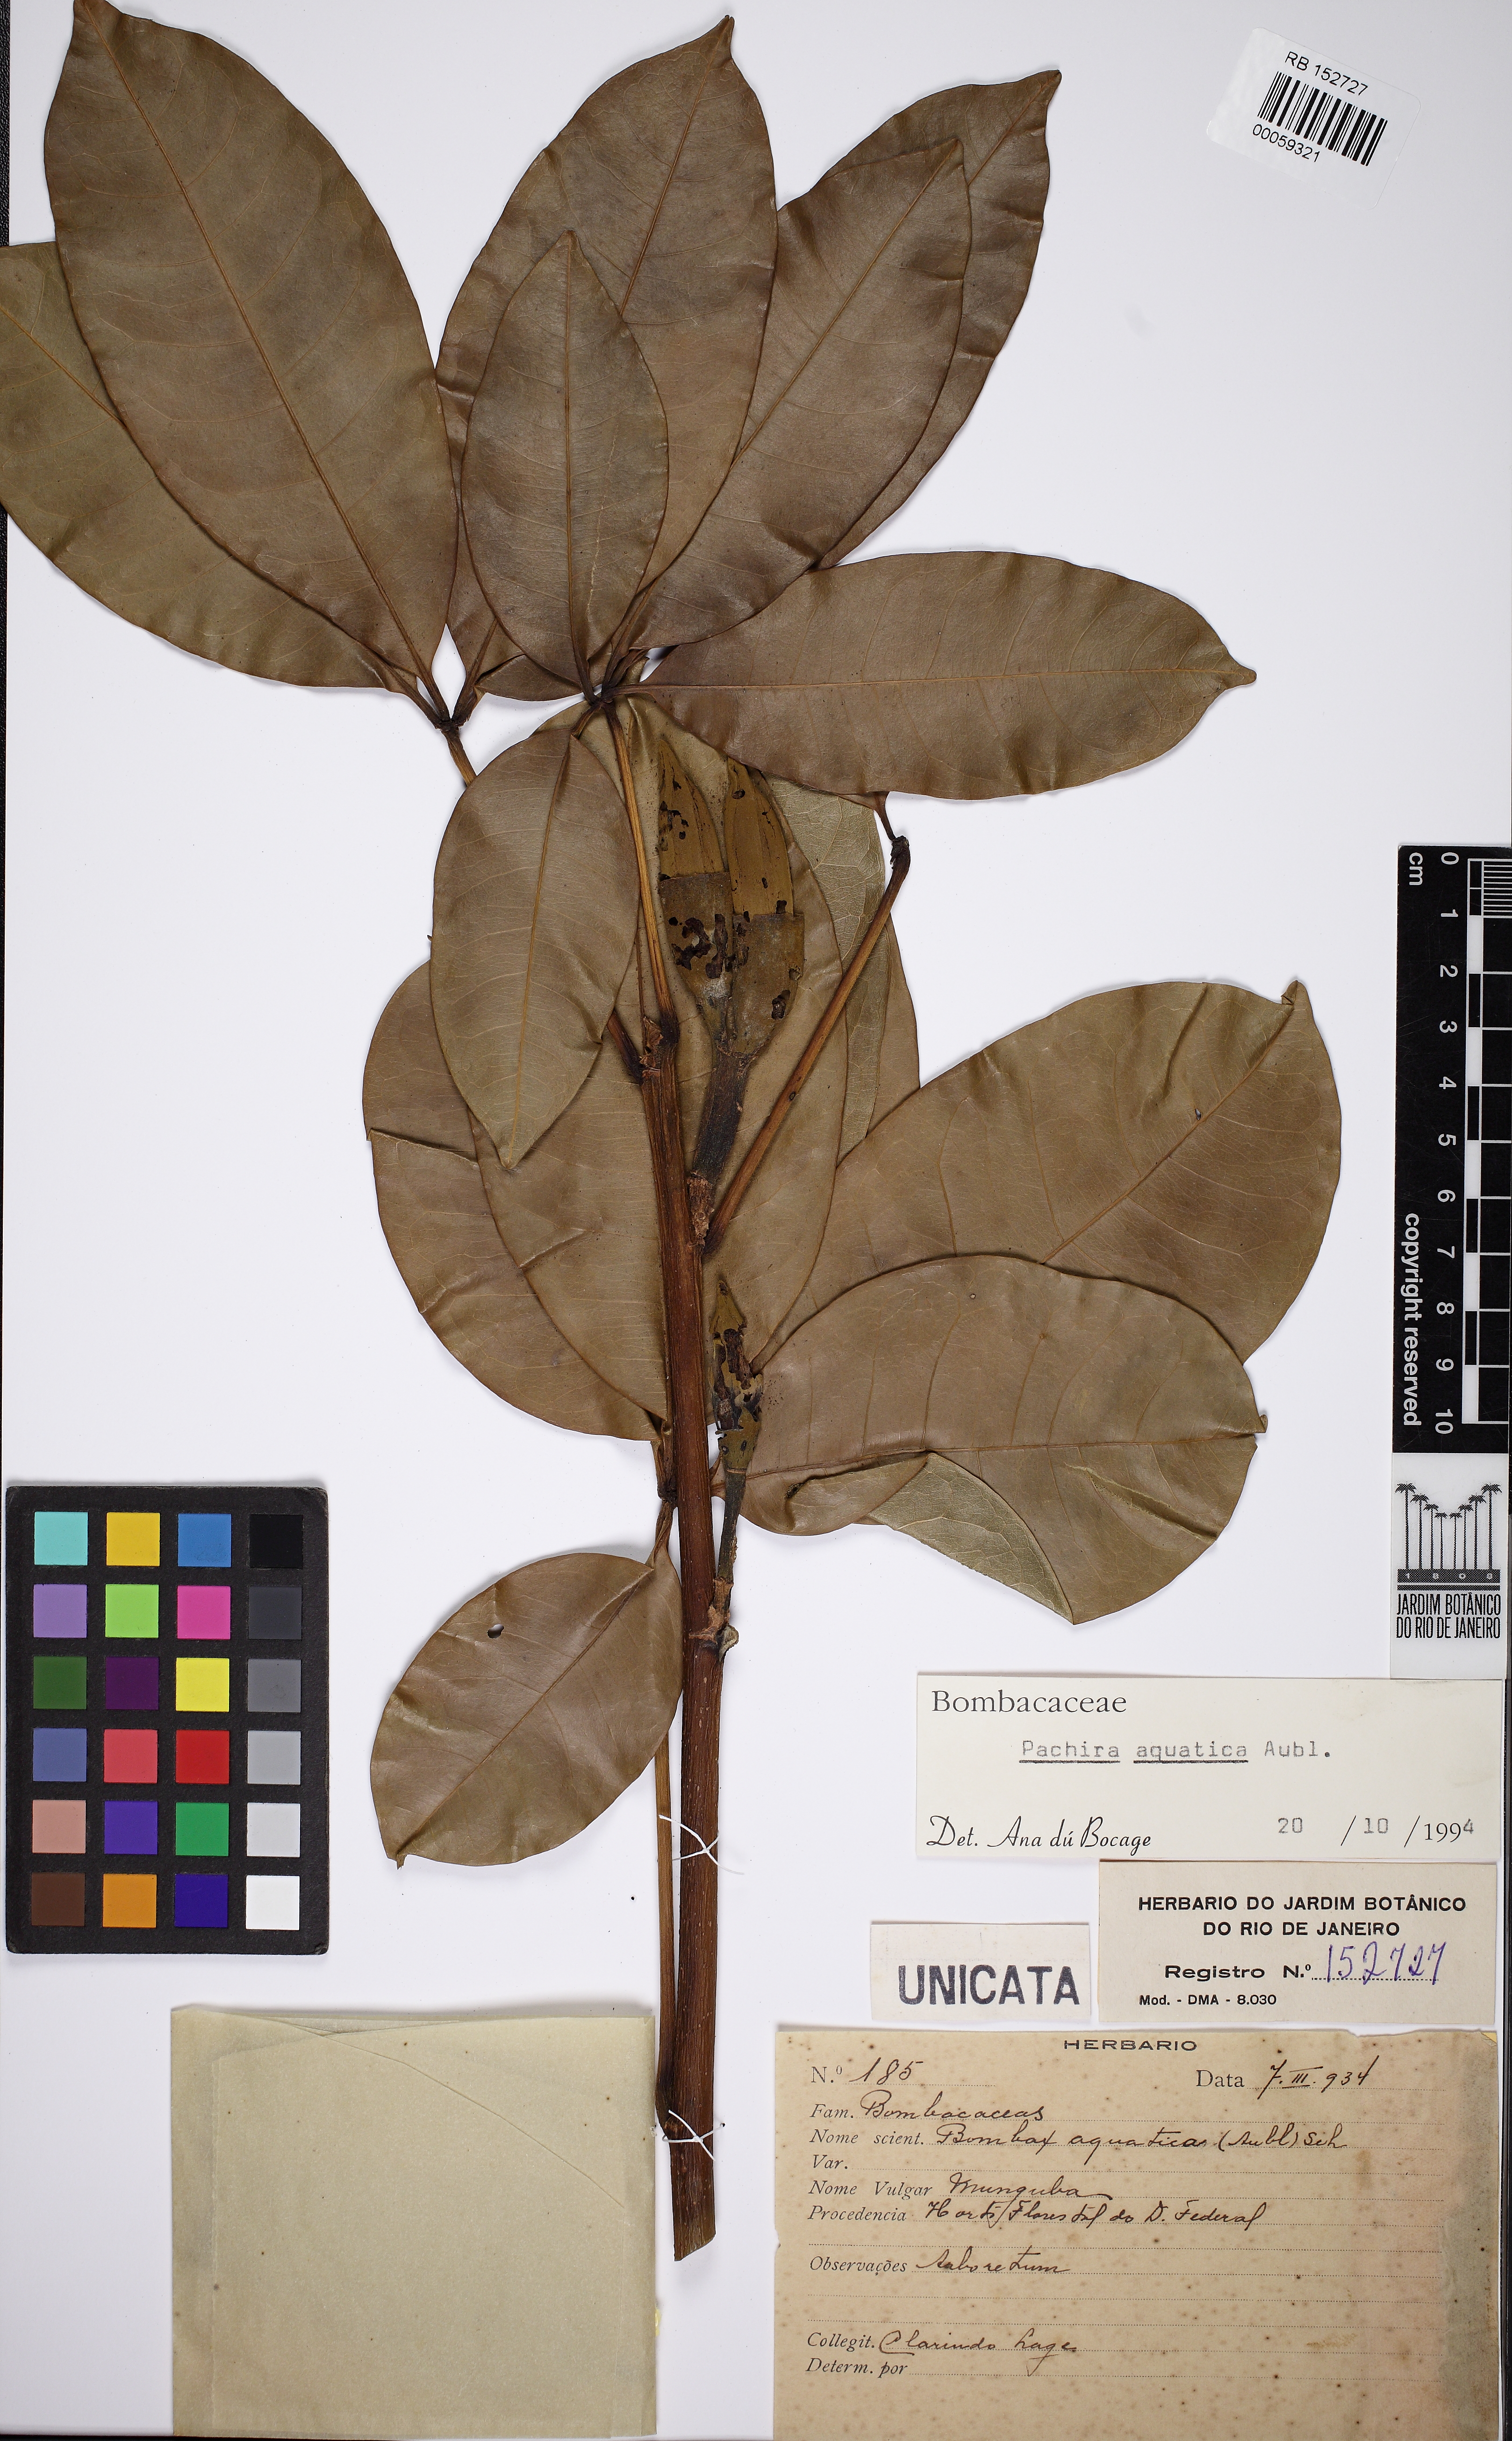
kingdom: Plantae
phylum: Tracheophyta
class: Magnoliopsida
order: Malvales
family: Malvaceae
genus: Pachira
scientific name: Pachira aquatica
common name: Provision-tree
